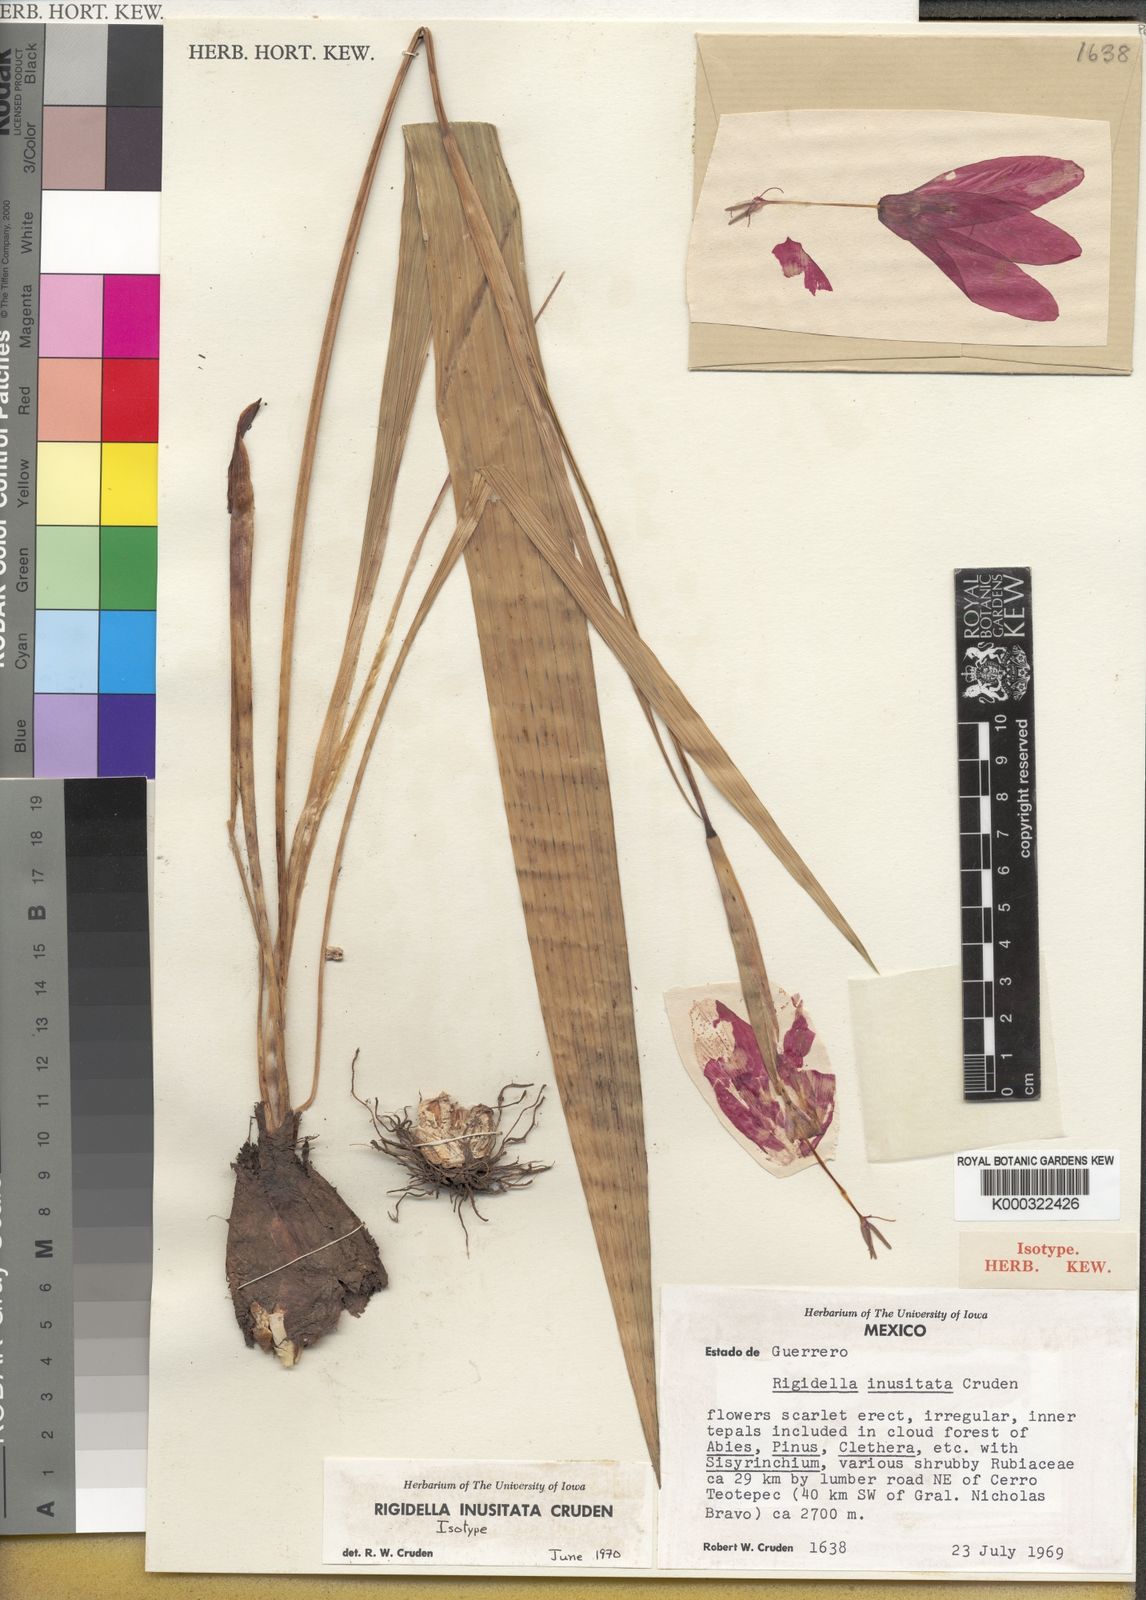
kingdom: Plantae
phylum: Tracheophyta
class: Liliopsida
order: Asparagales
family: Iridaceae
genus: Tigridia
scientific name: Tigridia inusitata
